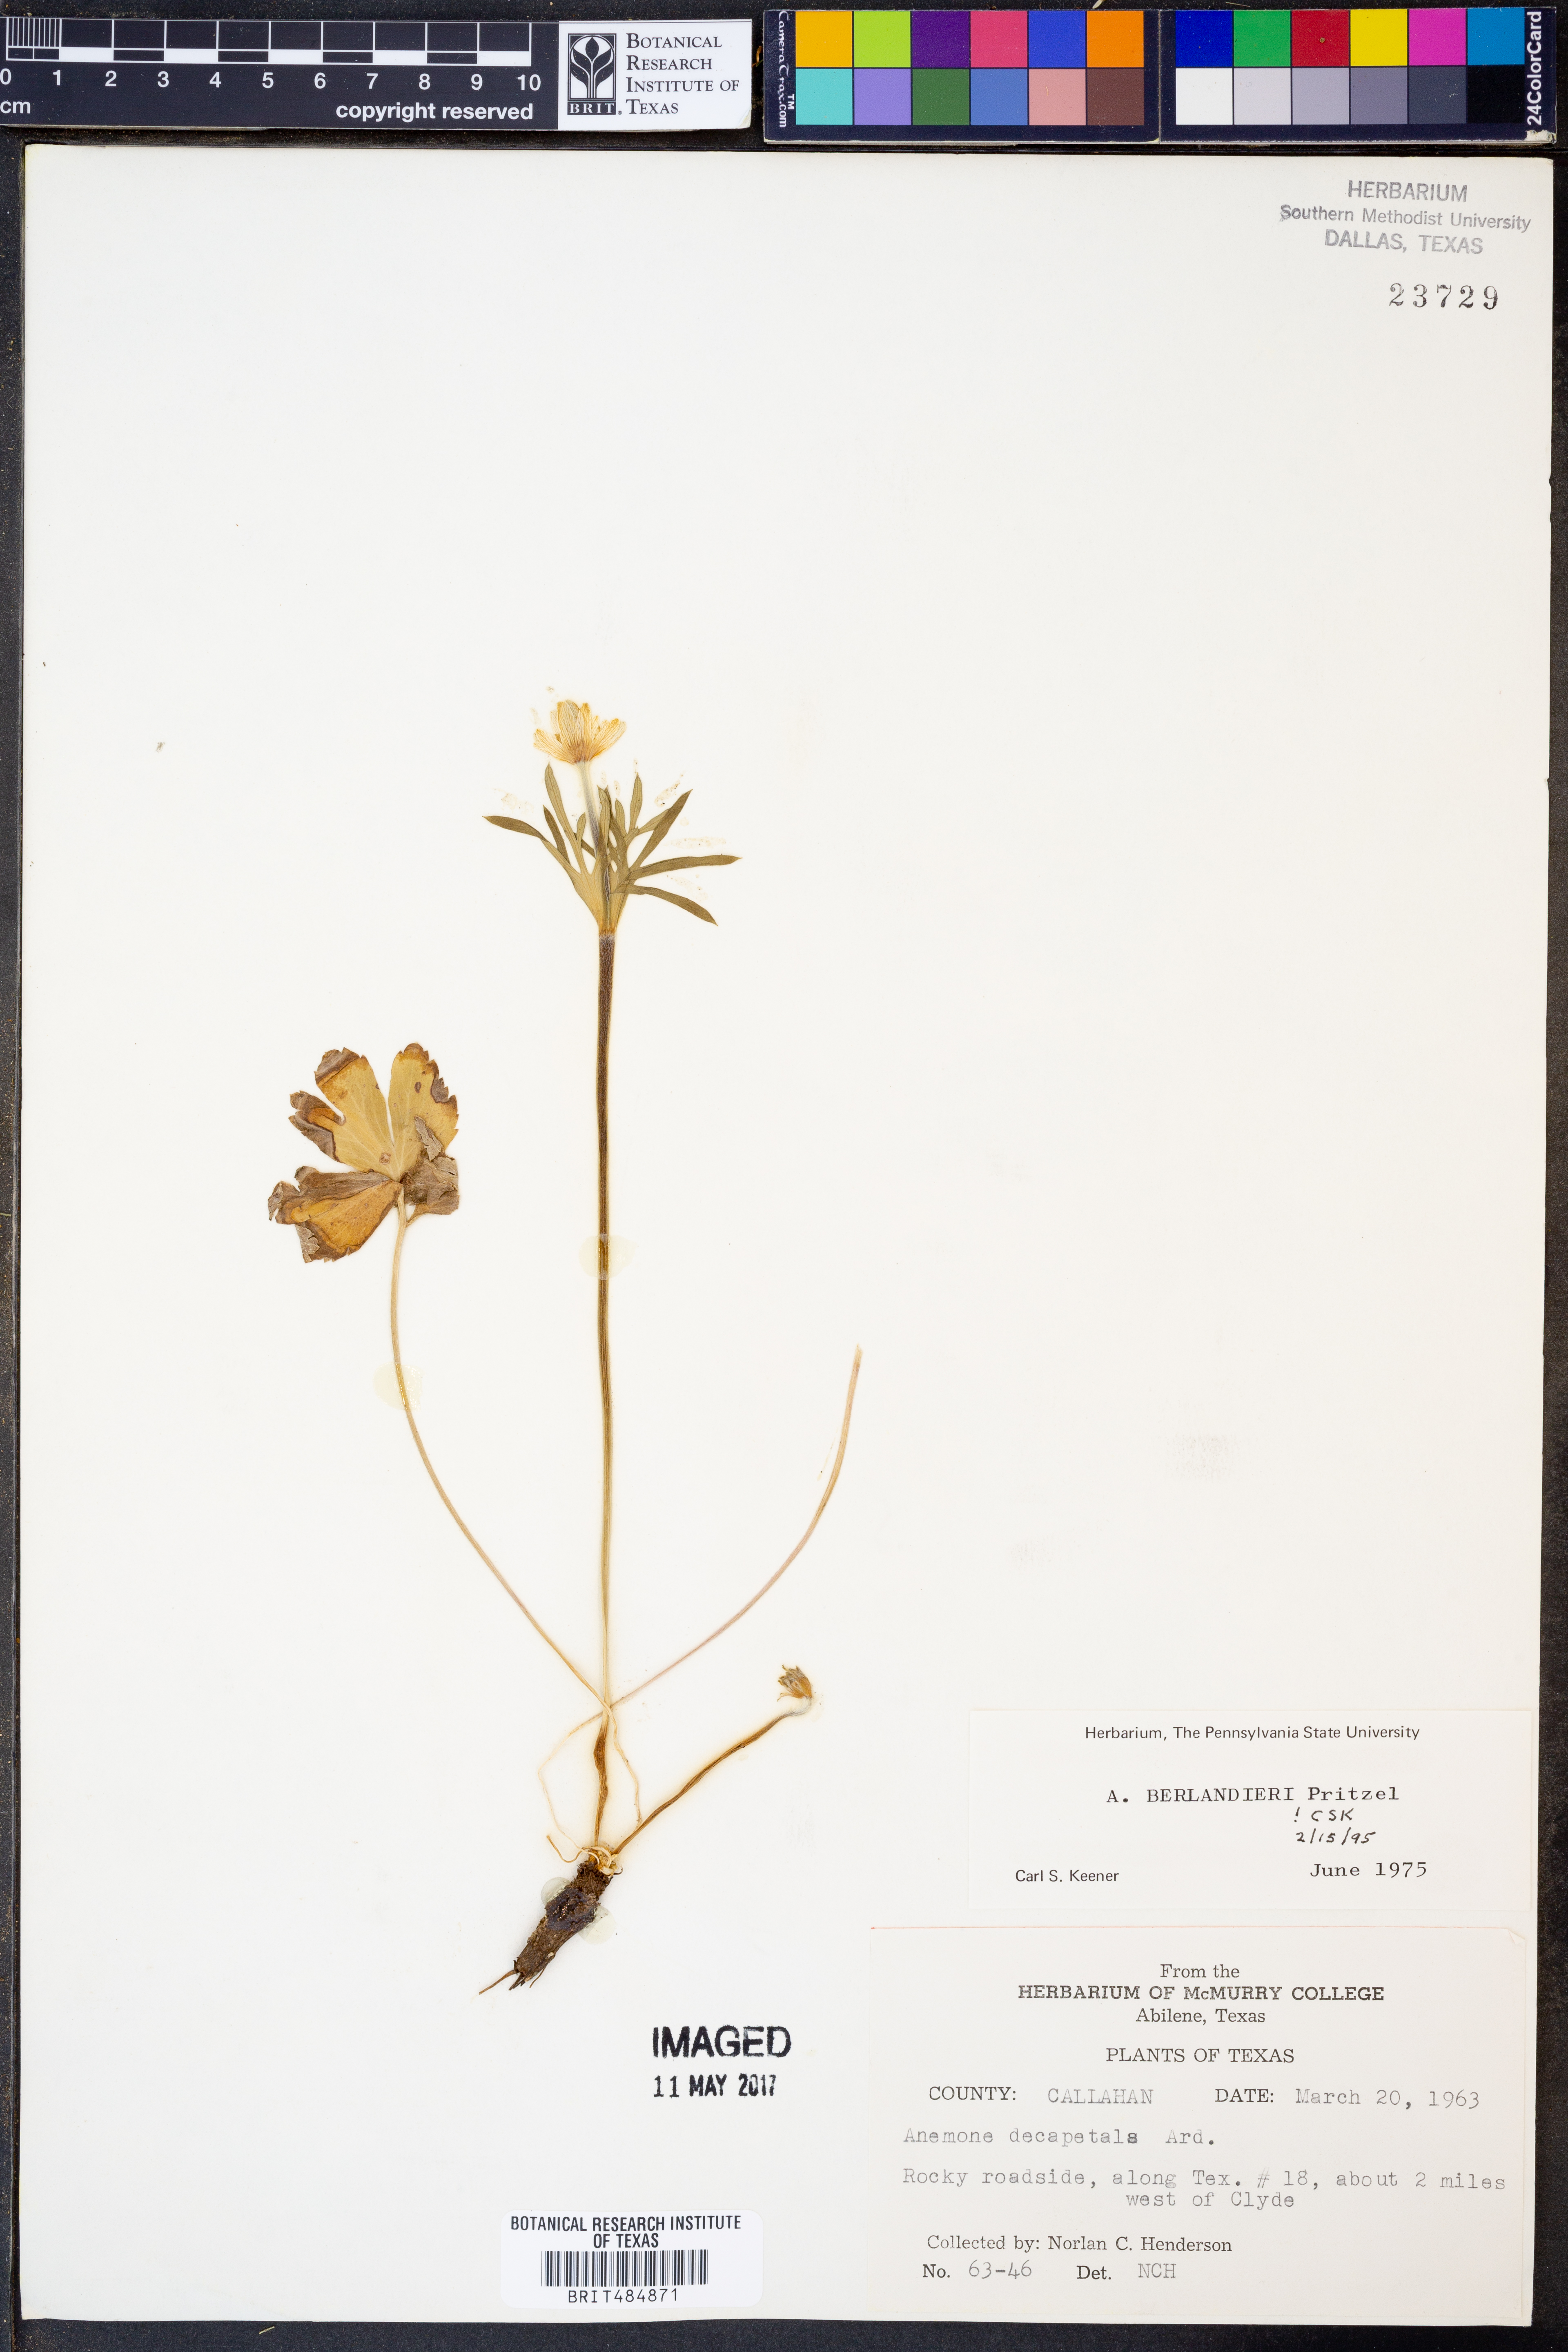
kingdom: Plantae
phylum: Tracheophyta
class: Magnoliopsida
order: Ranunculales
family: Ranunculaceae
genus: Anemone
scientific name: Anemone berlandieri
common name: Ten-petal anemone
